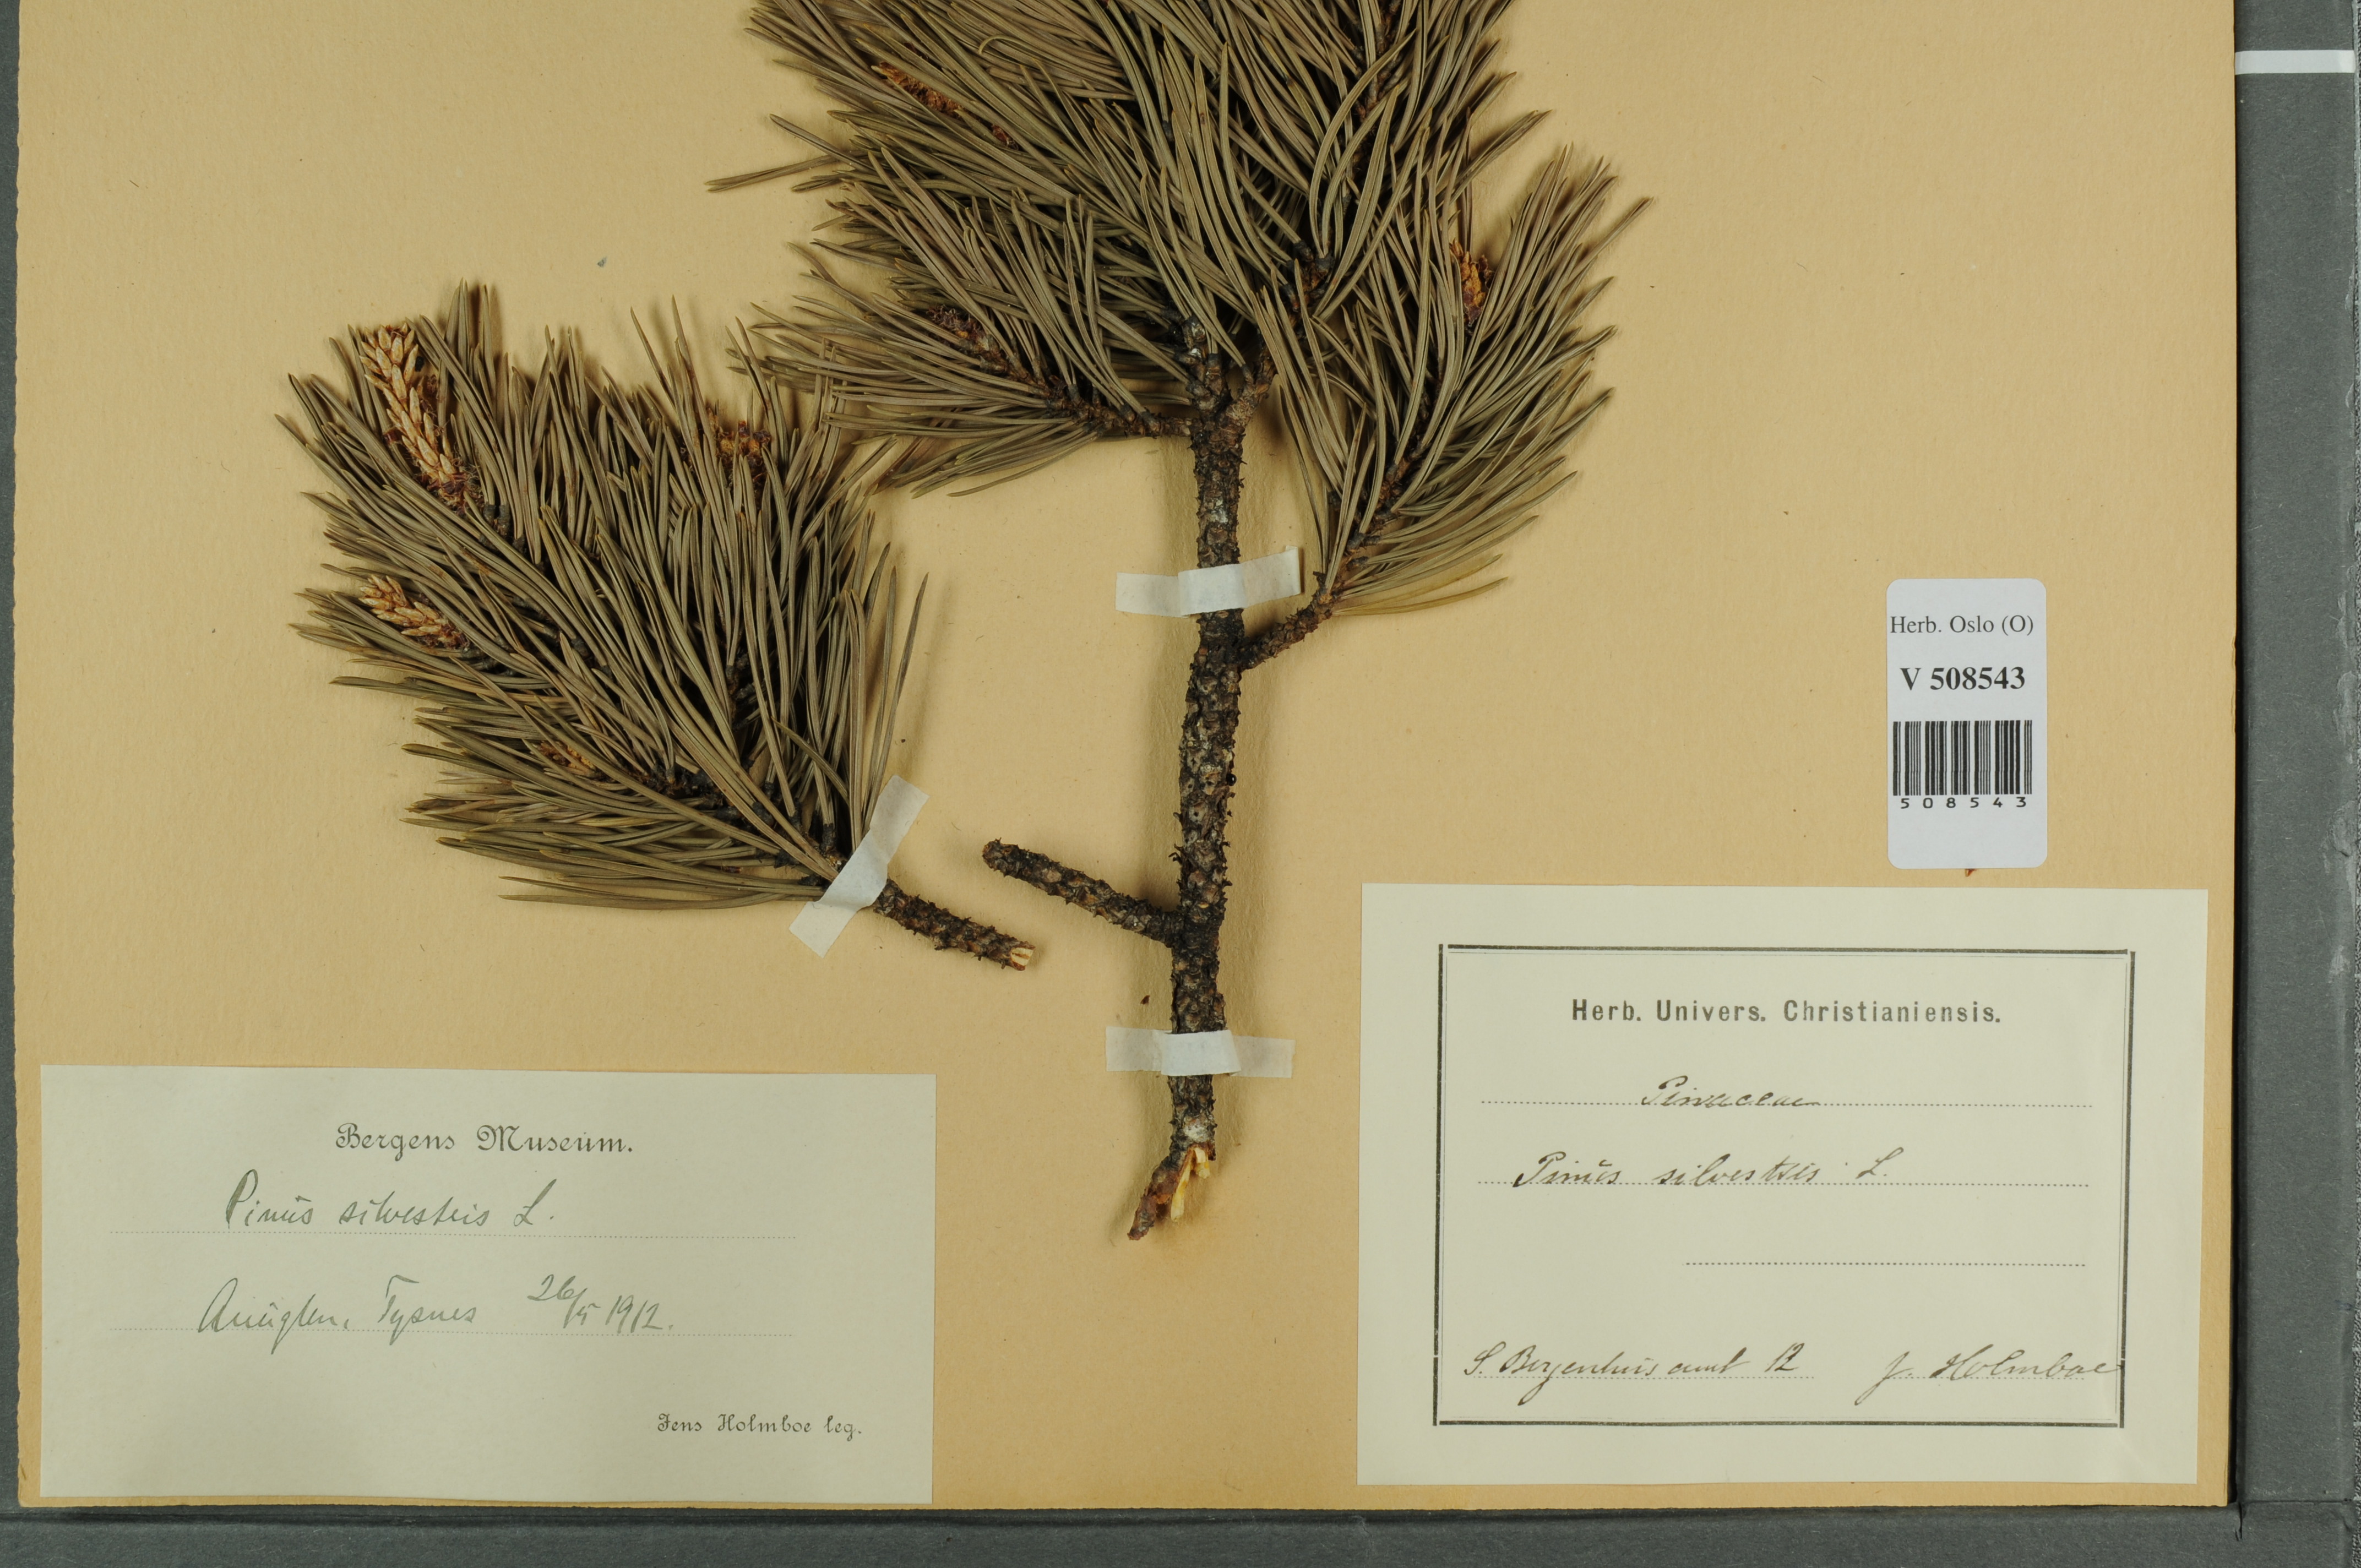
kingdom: Plantae
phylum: Tracheophyta
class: Pinopsida
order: Pinales
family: Pinaceae
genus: Pinus
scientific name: Pinus sylvestris
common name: Scots pine
